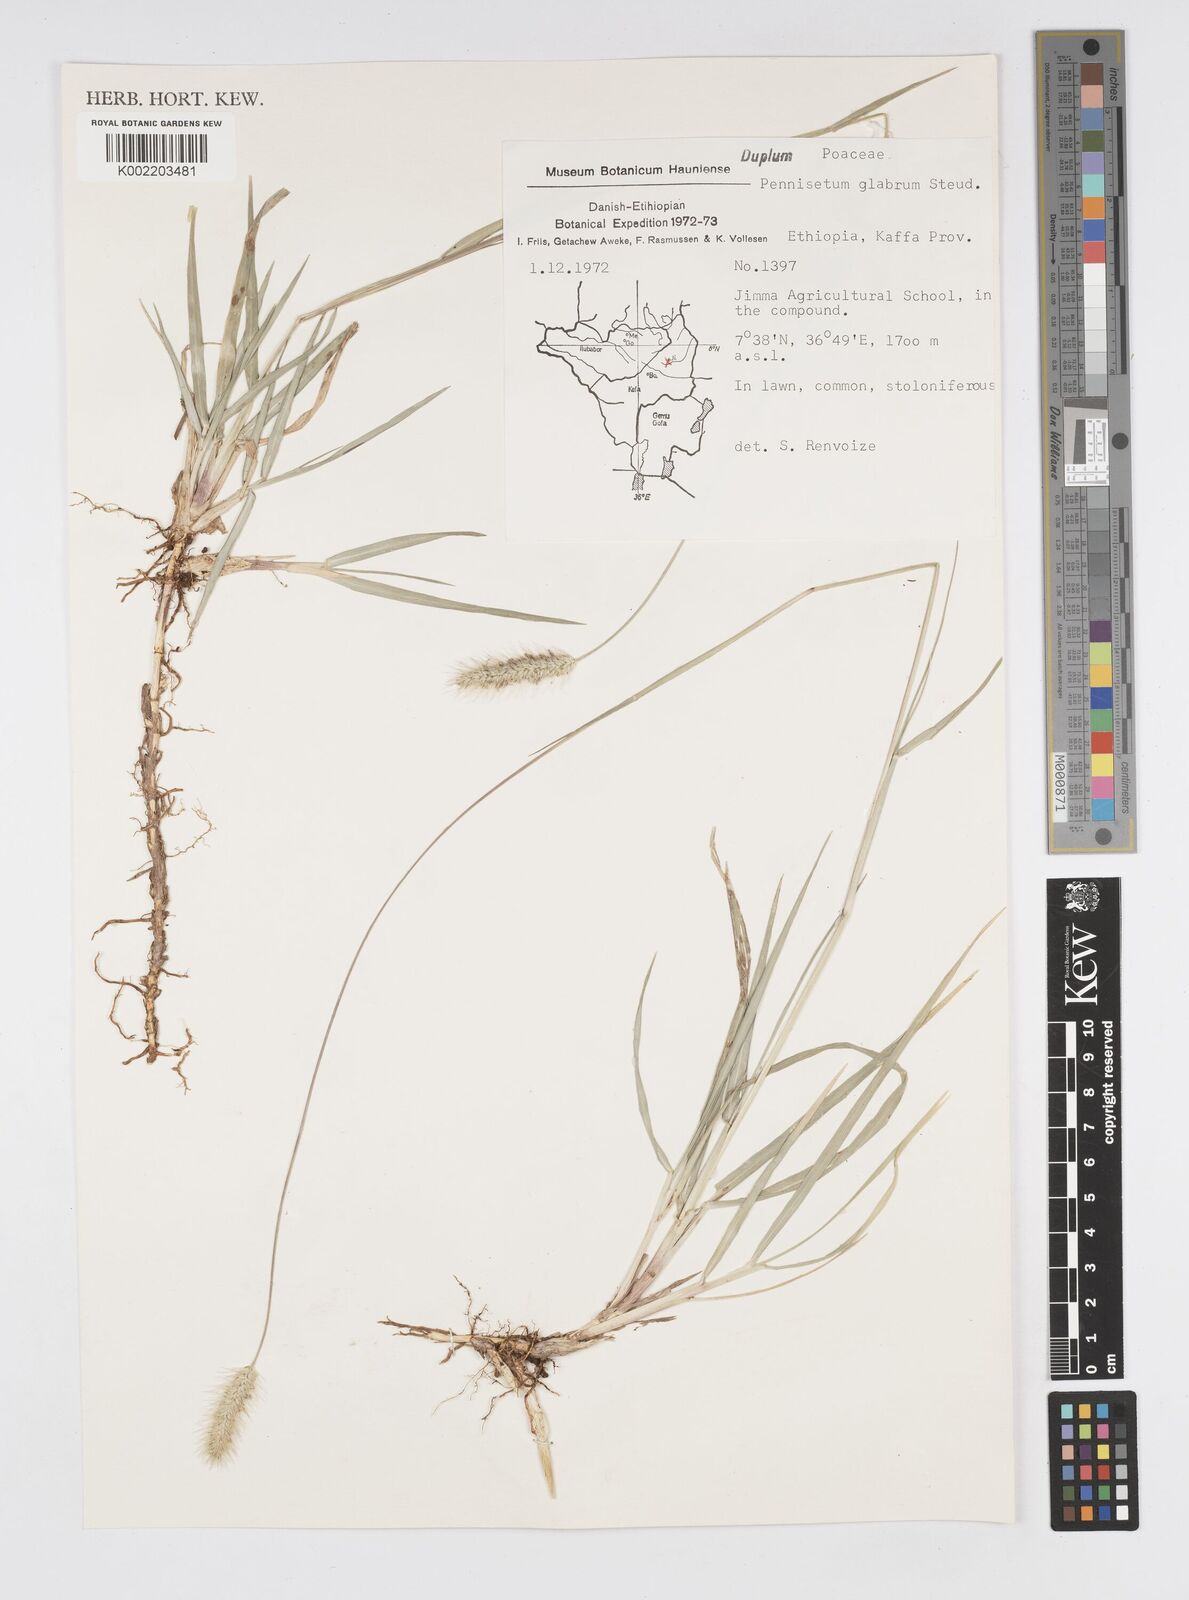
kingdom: Plantae
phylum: Tracheophyta
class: Liliopsida
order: Poales
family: Poaceae
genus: Cenchrus
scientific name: Cenchrus geniculatus
